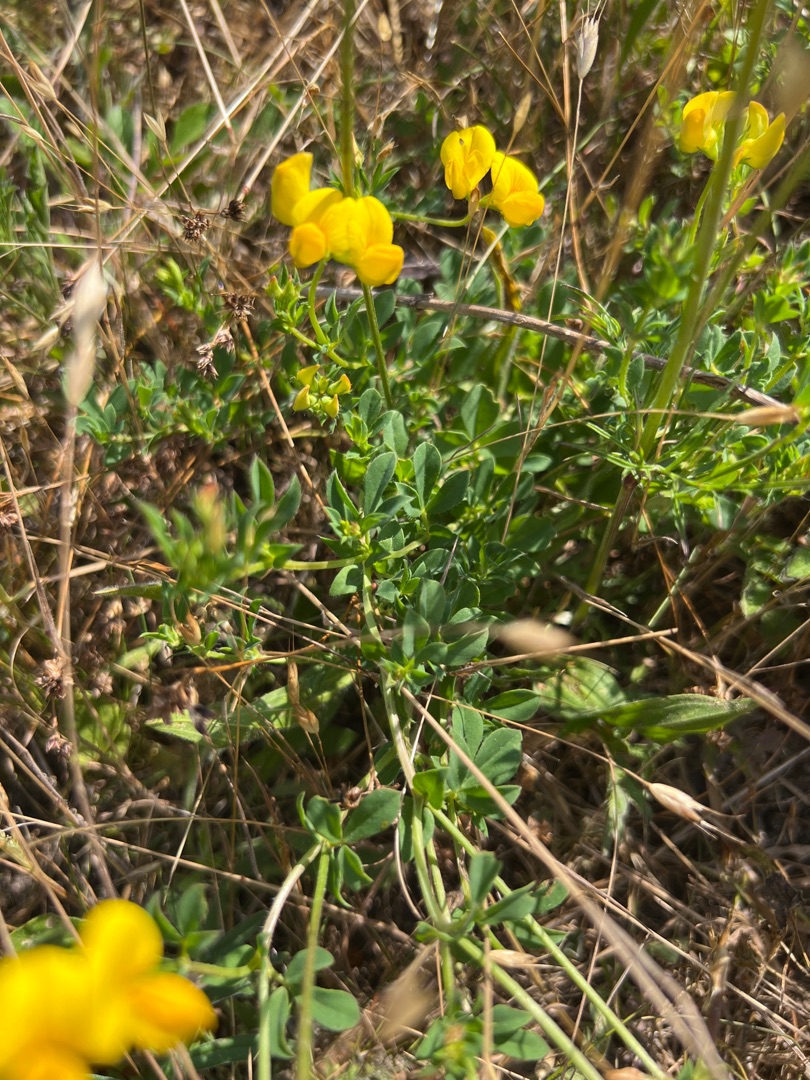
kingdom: Plantae
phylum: Tracheophyta
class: Magnoliopsida
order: Fabales
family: Fabaceae
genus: Lotus
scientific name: Lotus corniculatus
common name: Almindelig kællingetand
